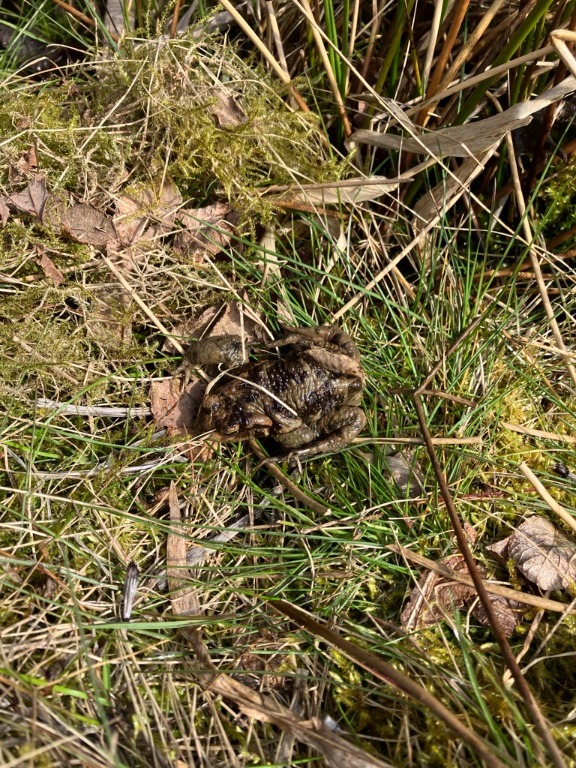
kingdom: Animalia
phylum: Chordata
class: Amphibia
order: Anura
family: Bufonidae
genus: Bufo
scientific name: Bufo bufo
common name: Skrubtudse
